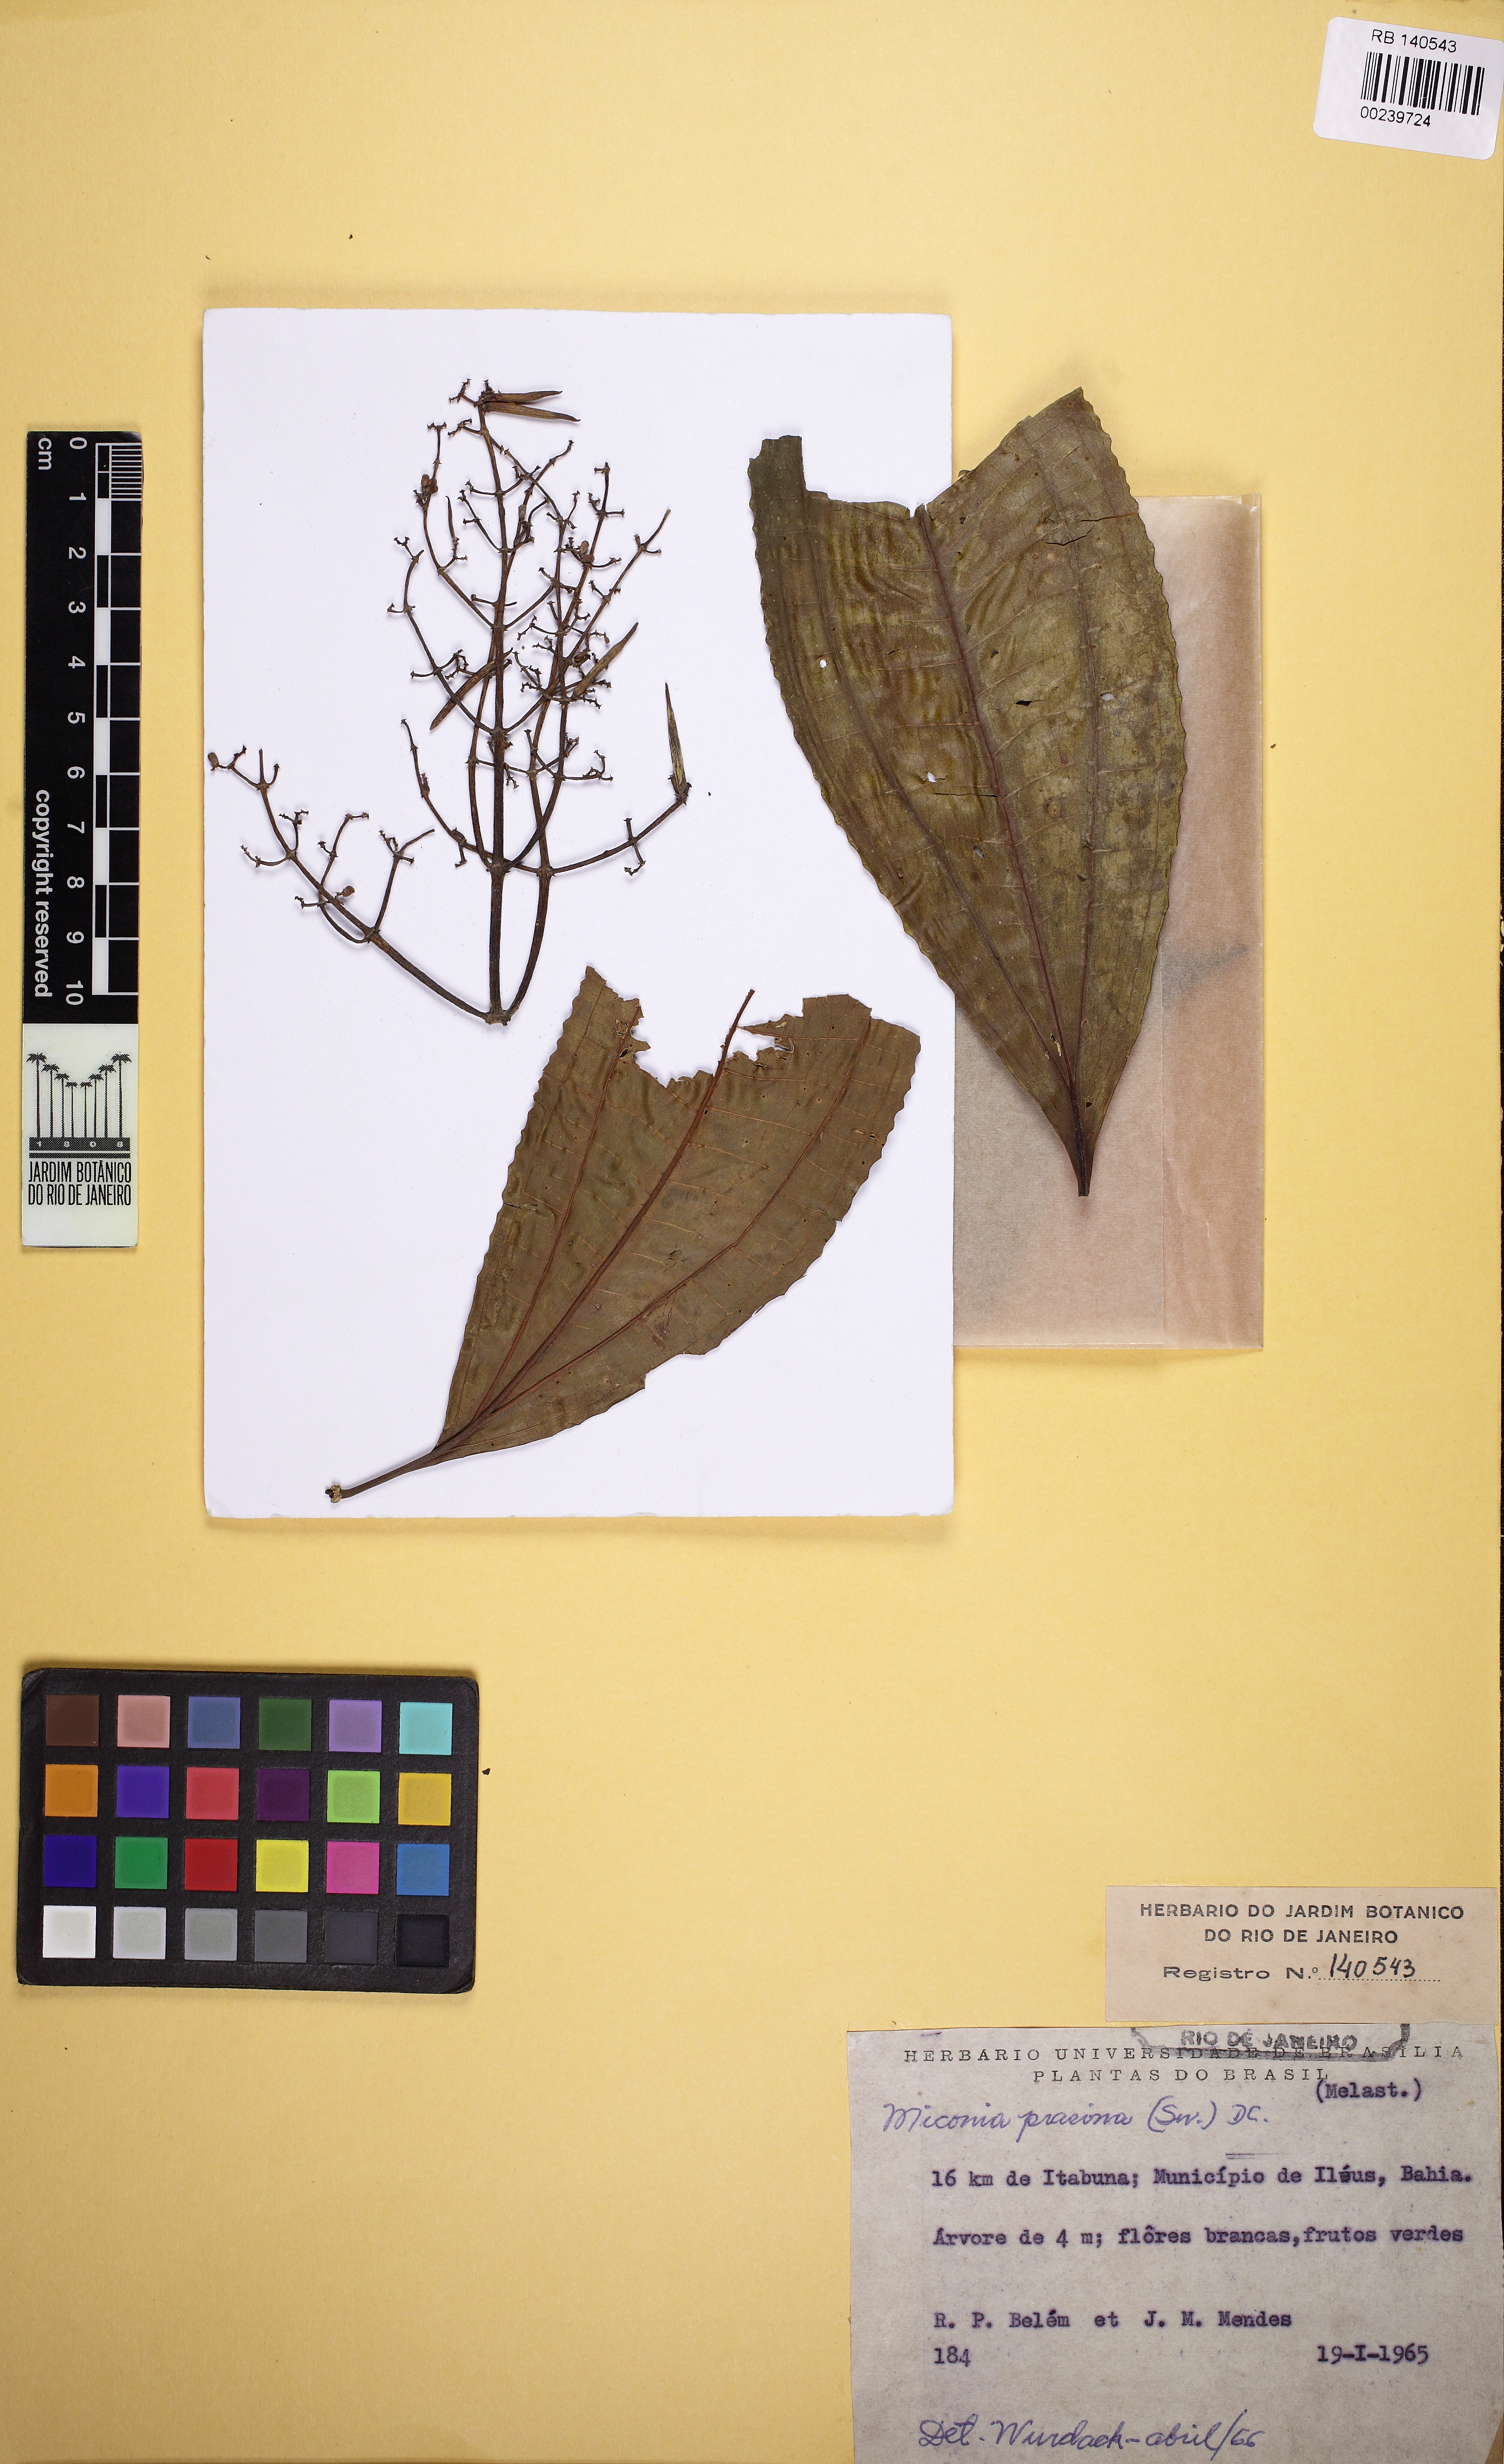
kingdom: Plantae
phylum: Tracheophyta
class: Magnoliopsida
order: Myrtales
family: Melastomataceae
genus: Miconia
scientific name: Miconia prasina
